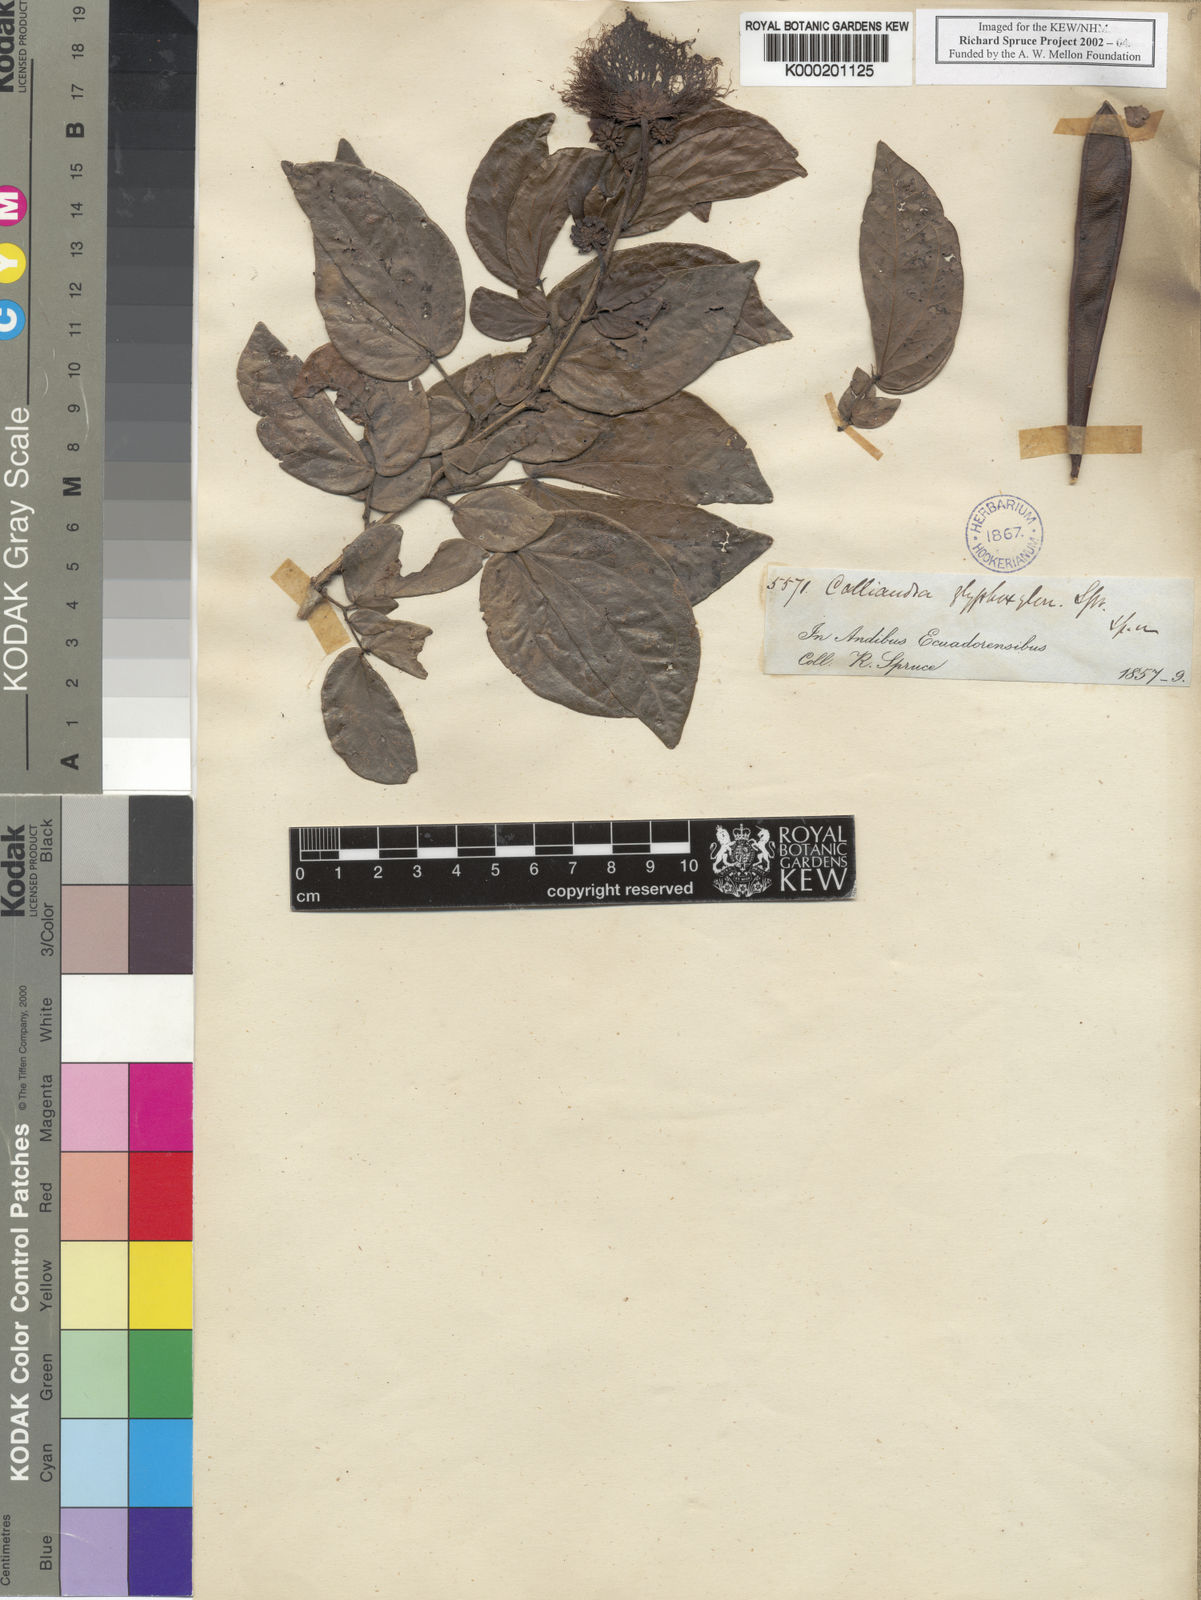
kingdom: Plantae
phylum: Tracheophyta
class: Magnoliopsida
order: Fabales
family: Fabaceae
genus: Calliandra
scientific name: Calliandra glyphoxylon
